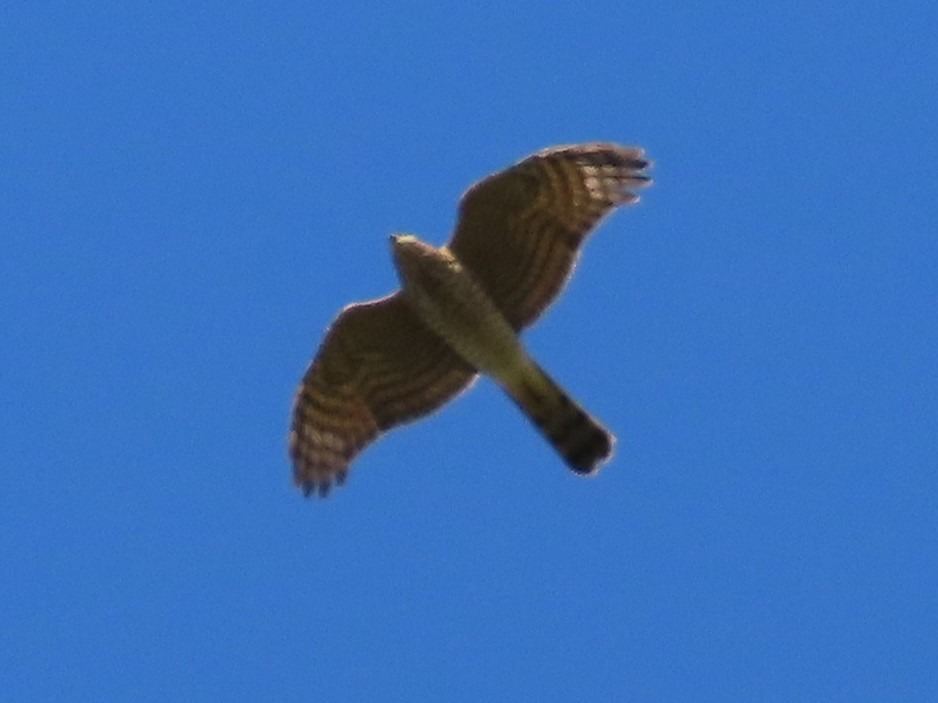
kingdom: Animalia
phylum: Chordata
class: Aves
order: Accipitriformes
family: Accipitridae
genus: Accipiter
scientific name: Accipiter nisus
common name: Spurvehøg
